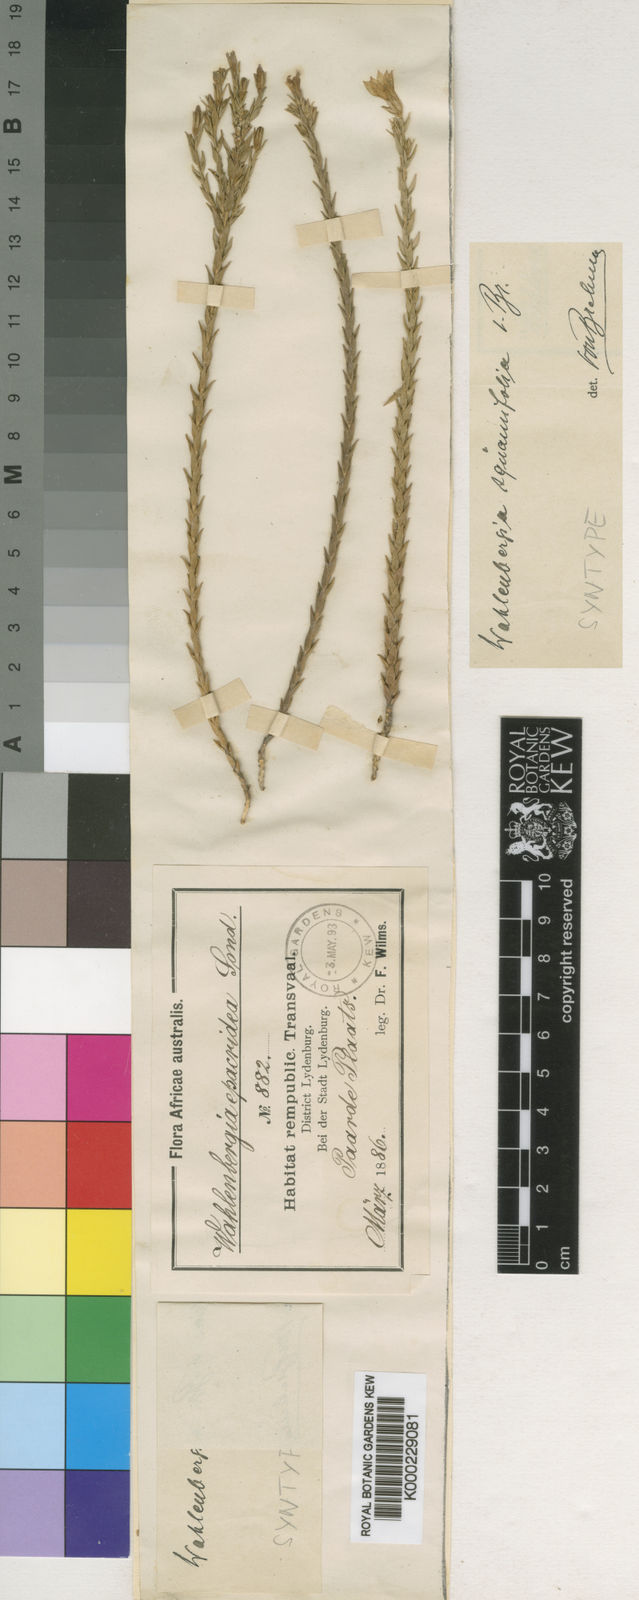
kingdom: Plantae
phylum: Tracheophyta
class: Magnoliopsida
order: Asterales
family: Campanulaceae
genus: Wahlenbergia
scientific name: Wahlenbergia squamifolia
